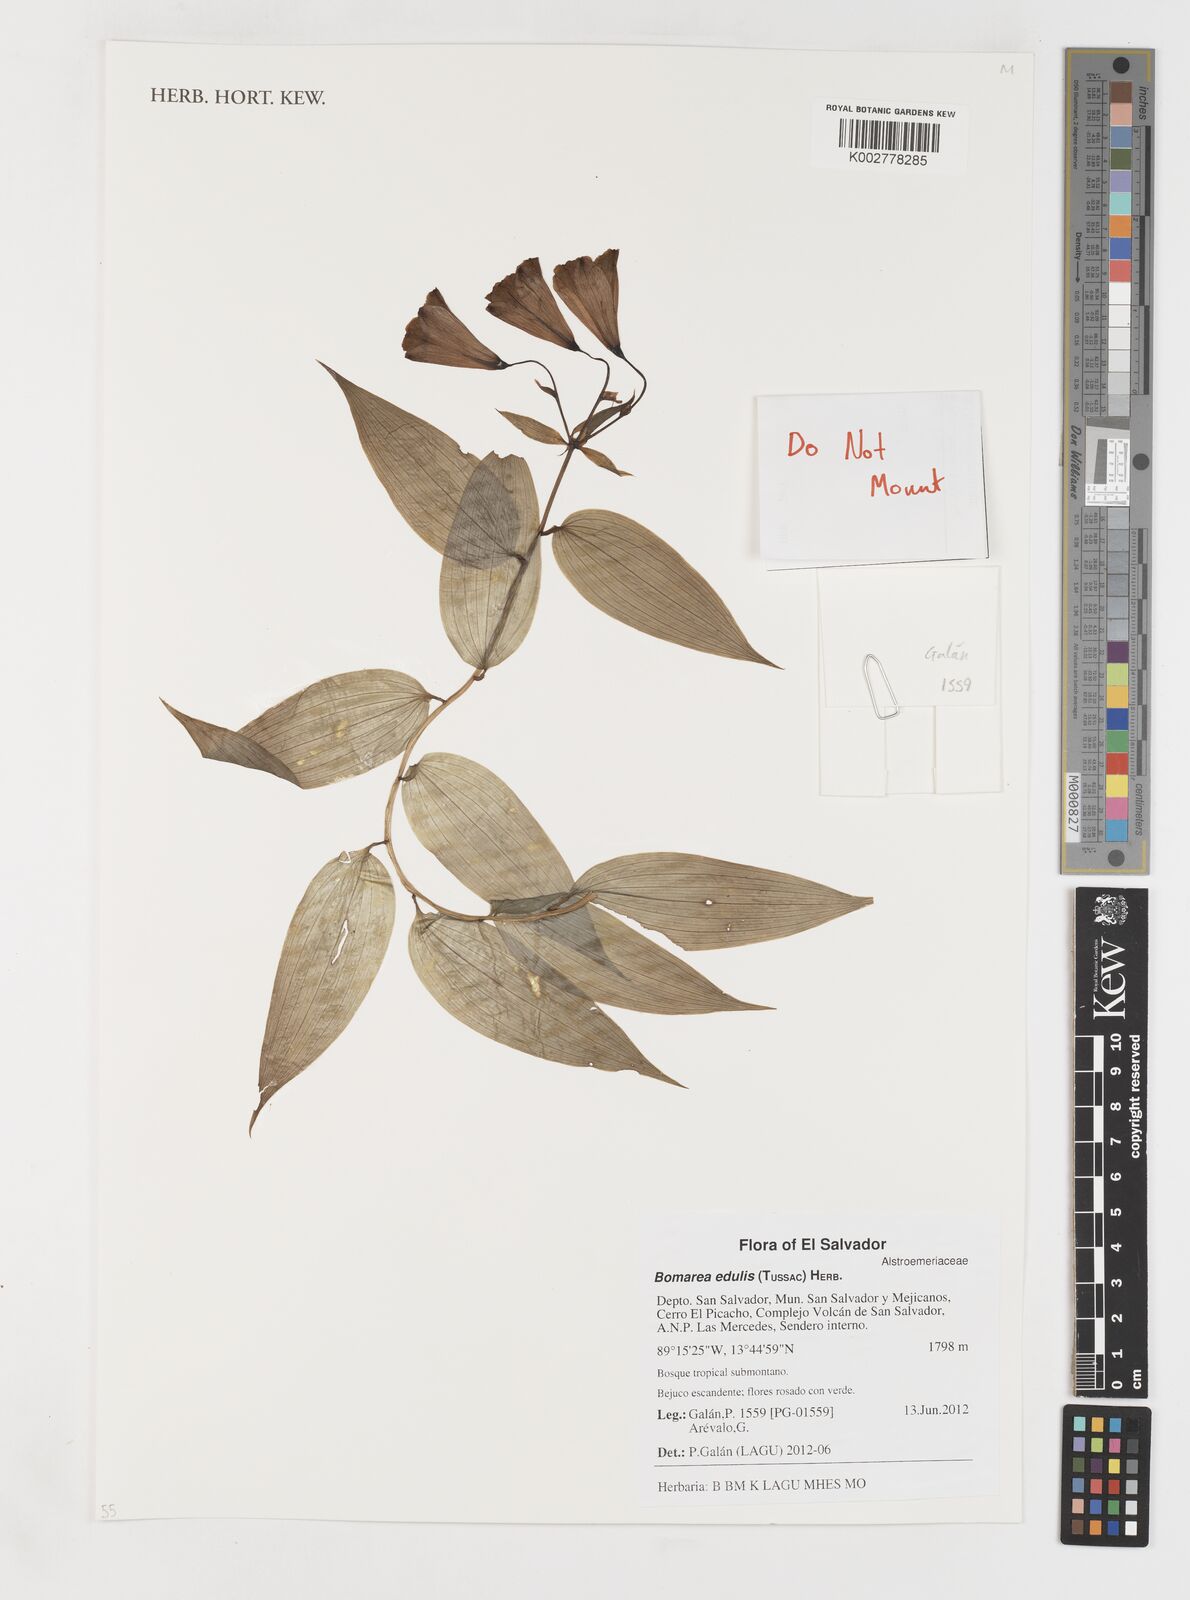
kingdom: Plantae
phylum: Tracheophyta
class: Liliopsida
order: Liliales
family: Alstroemeriaceae
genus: Bomarea
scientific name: Bomarea edulis
